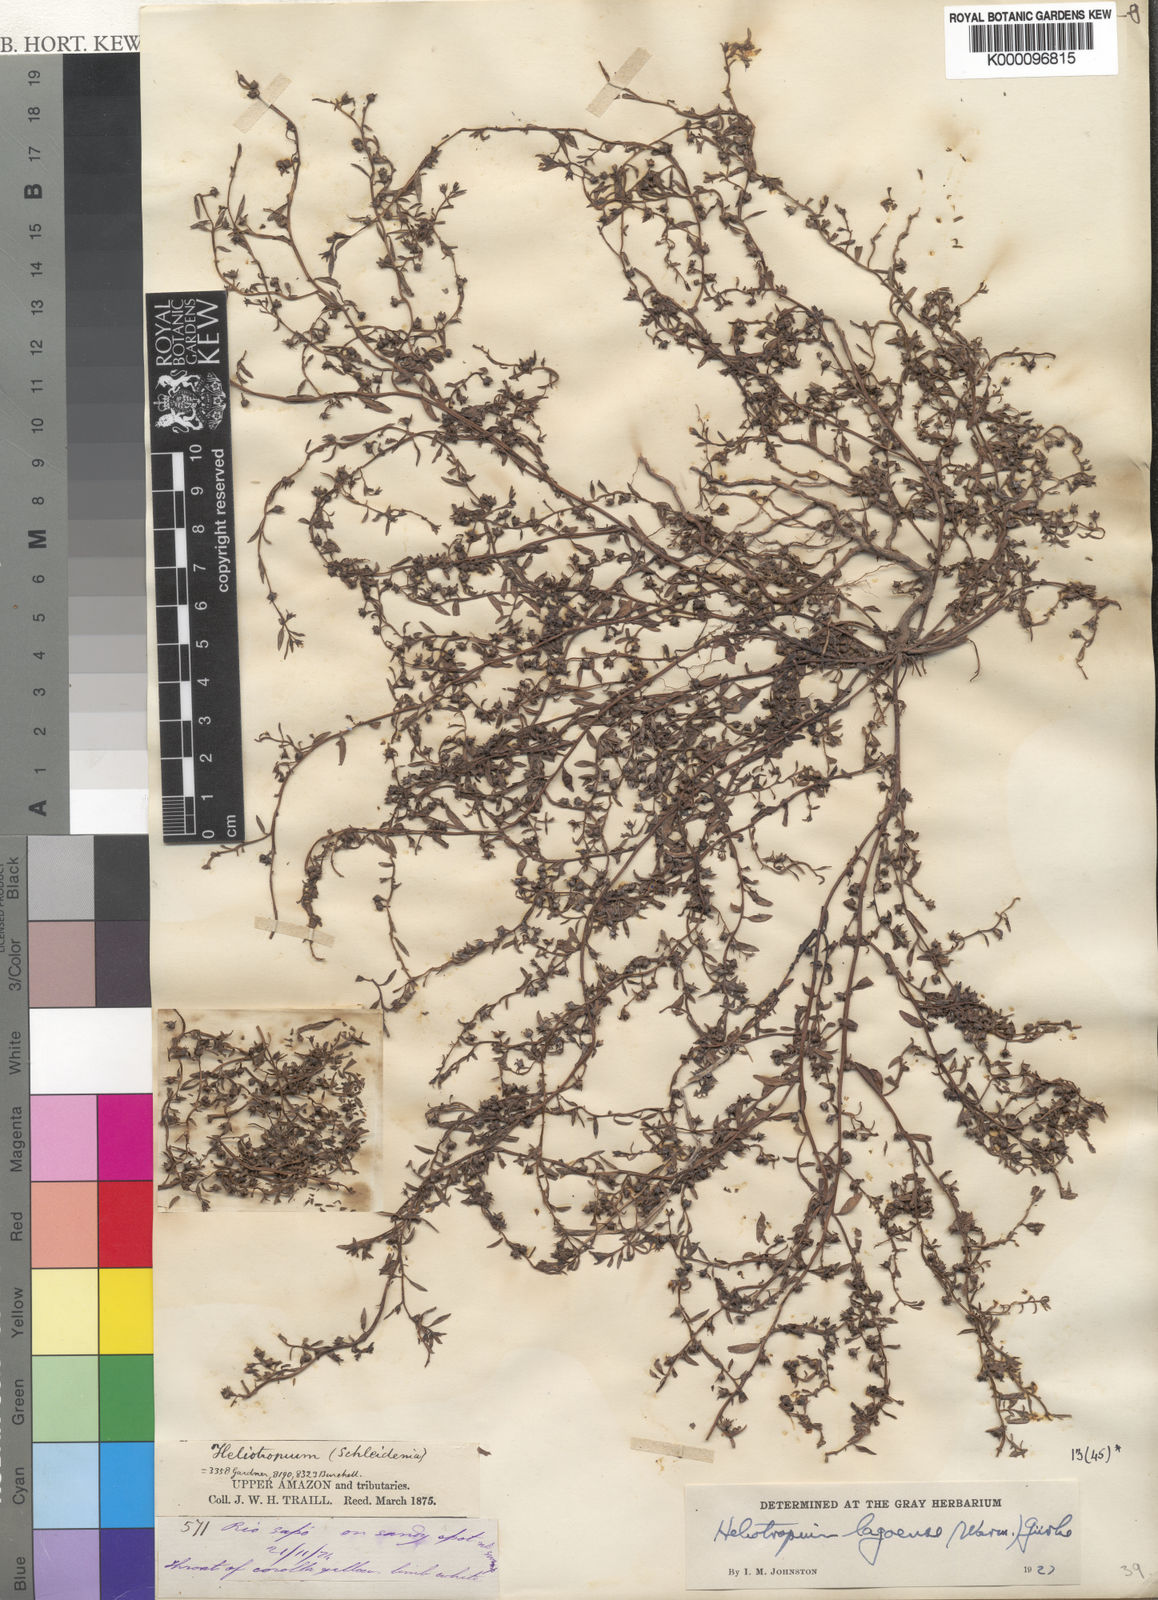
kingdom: Plantae
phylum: Tracheophyta
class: Magnoliopsida
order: Boraginales
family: Heliotropiaceae
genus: Heliotropium
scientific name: Heliotropium
